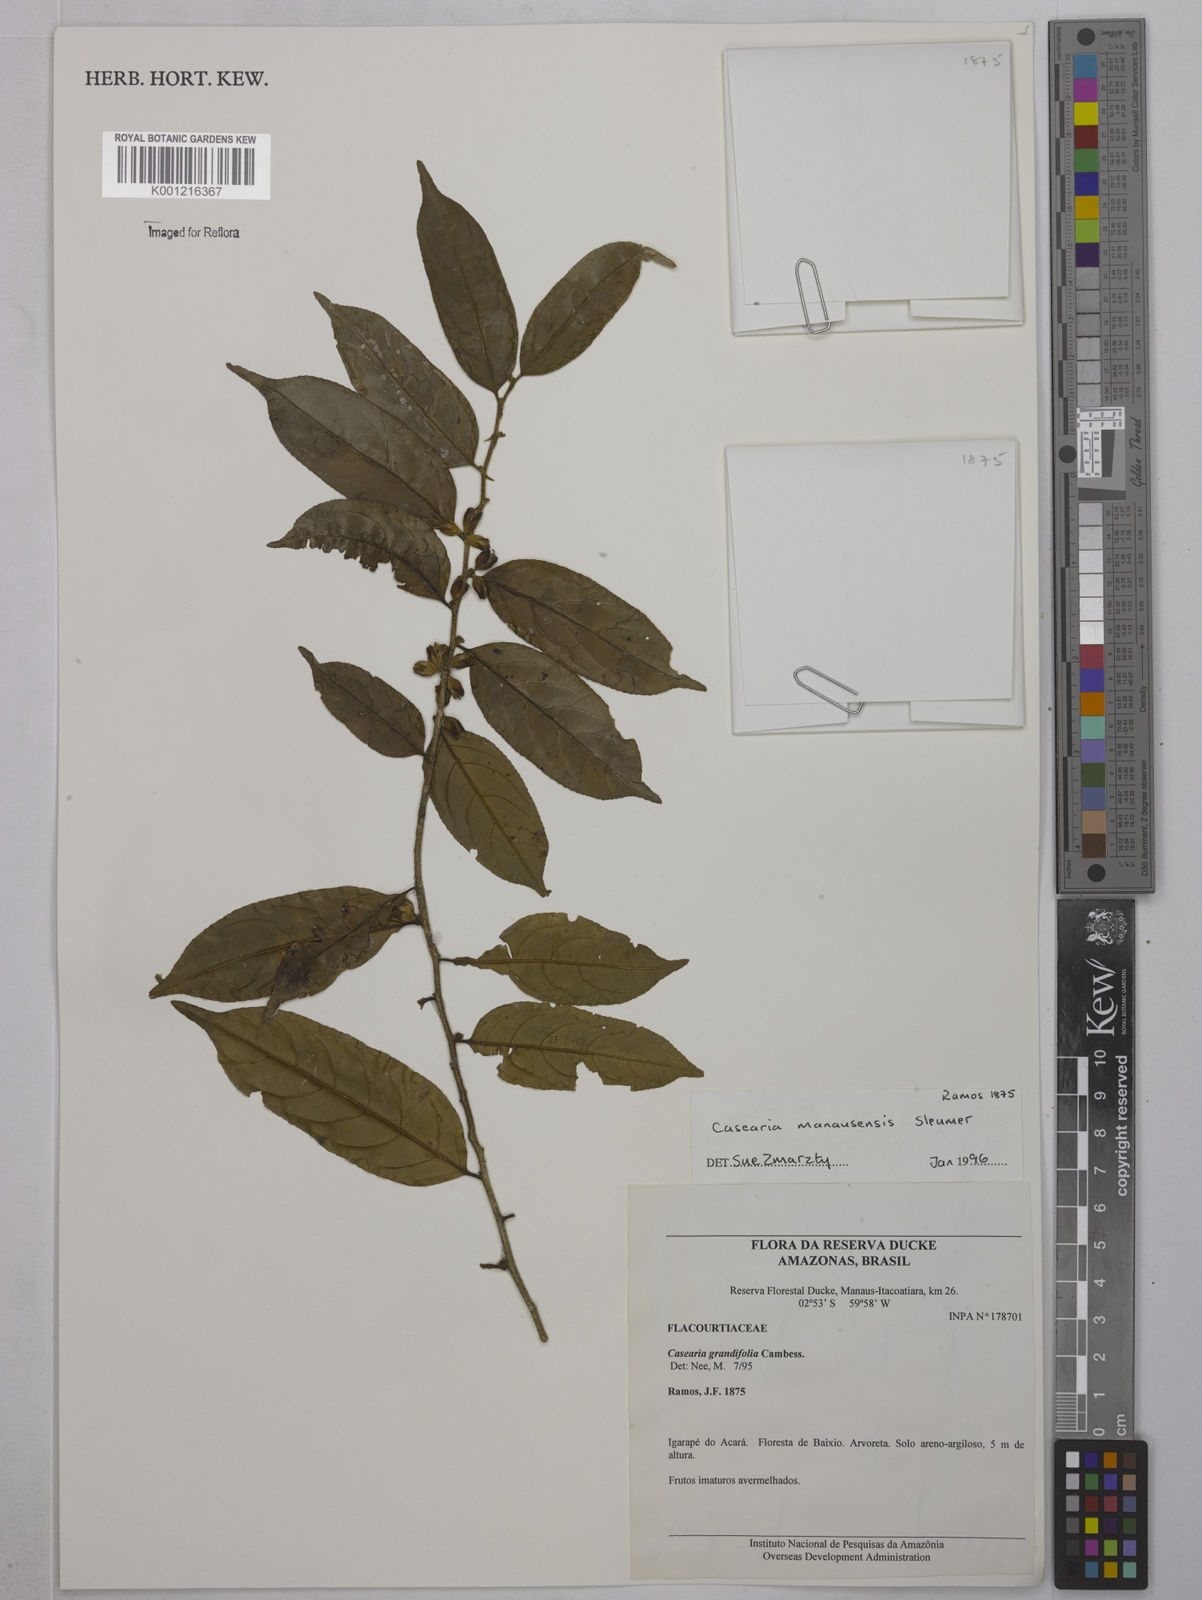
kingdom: Plantae
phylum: Tracheophyta
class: Magnoliopsida
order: Malpighiales
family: Salicaceae
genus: Casearia
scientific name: Casearia manausensis
